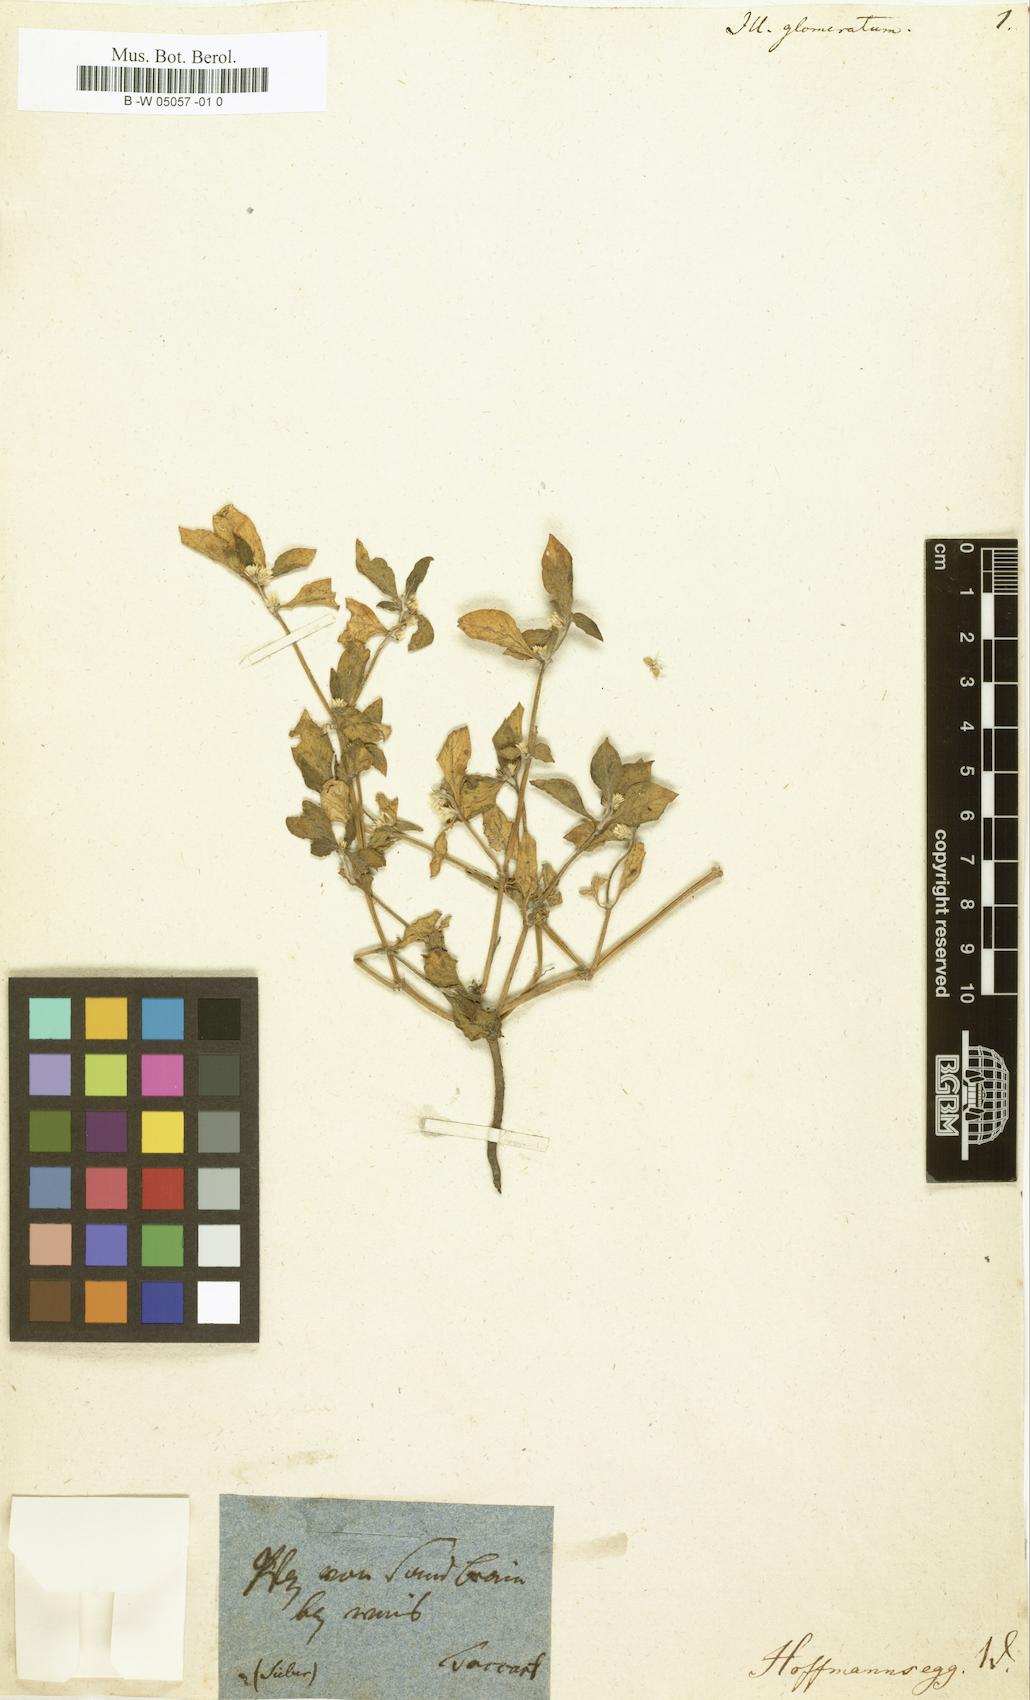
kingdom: Plantae
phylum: Tracheophyta
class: Magnoliopsida
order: Caryophyllales
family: Caryophyllaceae
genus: Illecebrum
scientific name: Illecebrum glomeratum
